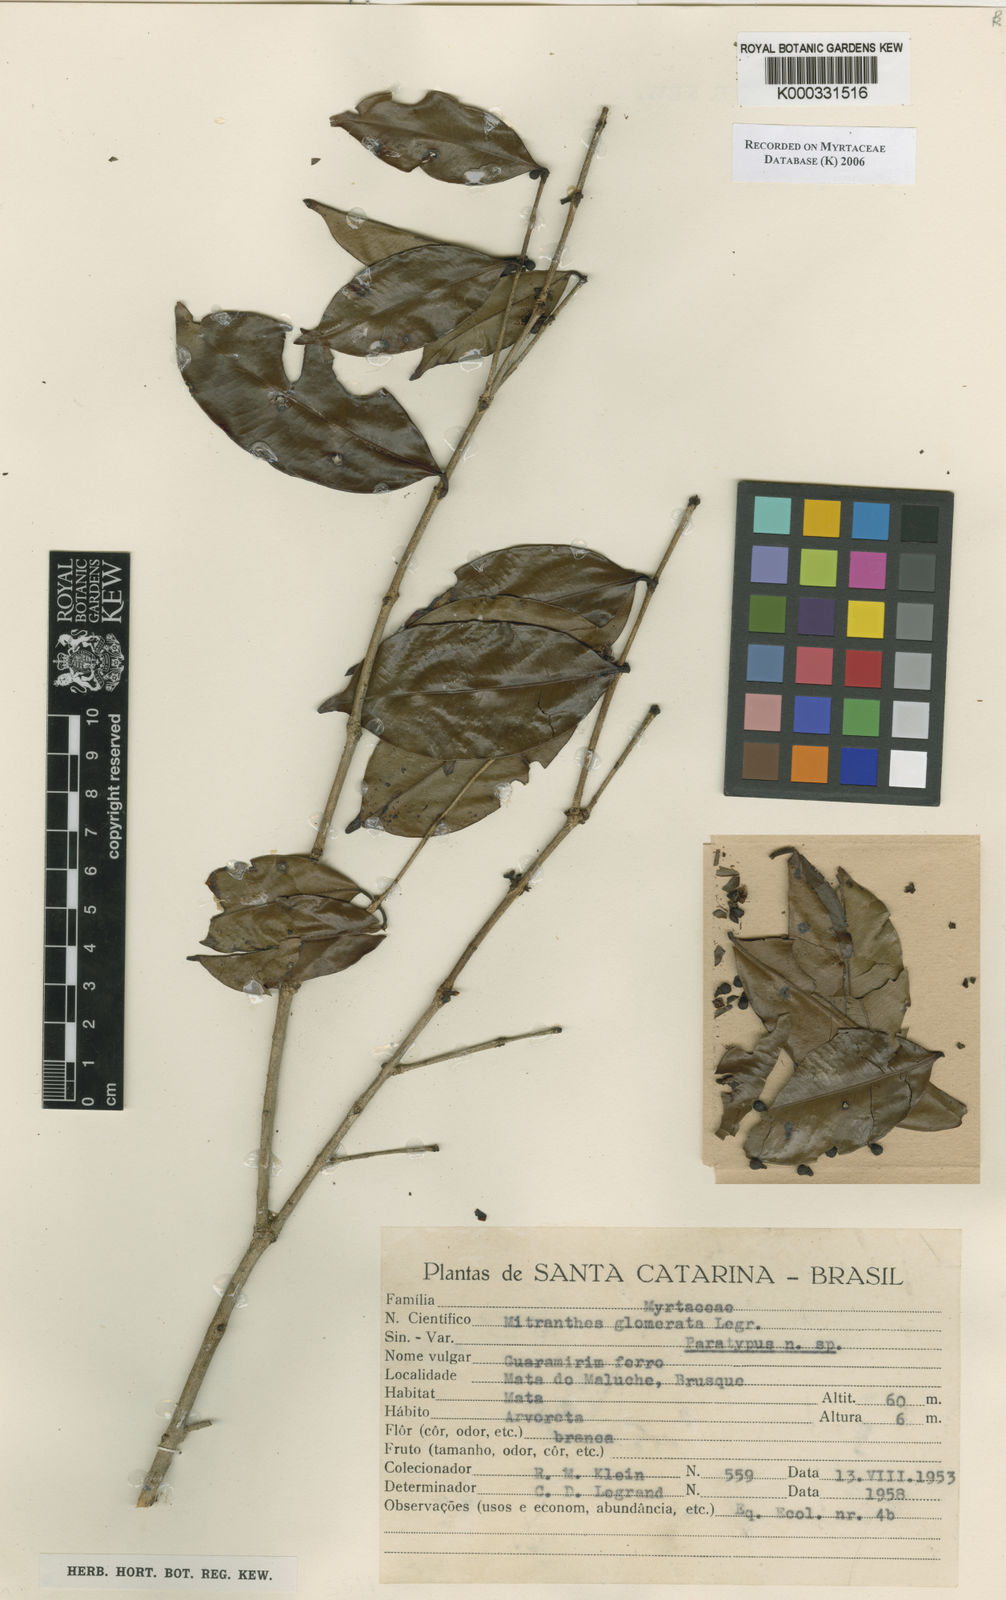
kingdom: Plantae
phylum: Tracheophyta
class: Magnoliopsida
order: Myrtales
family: Myrtaceae
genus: Neomitranthes
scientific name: Neomitranthes glomerata
